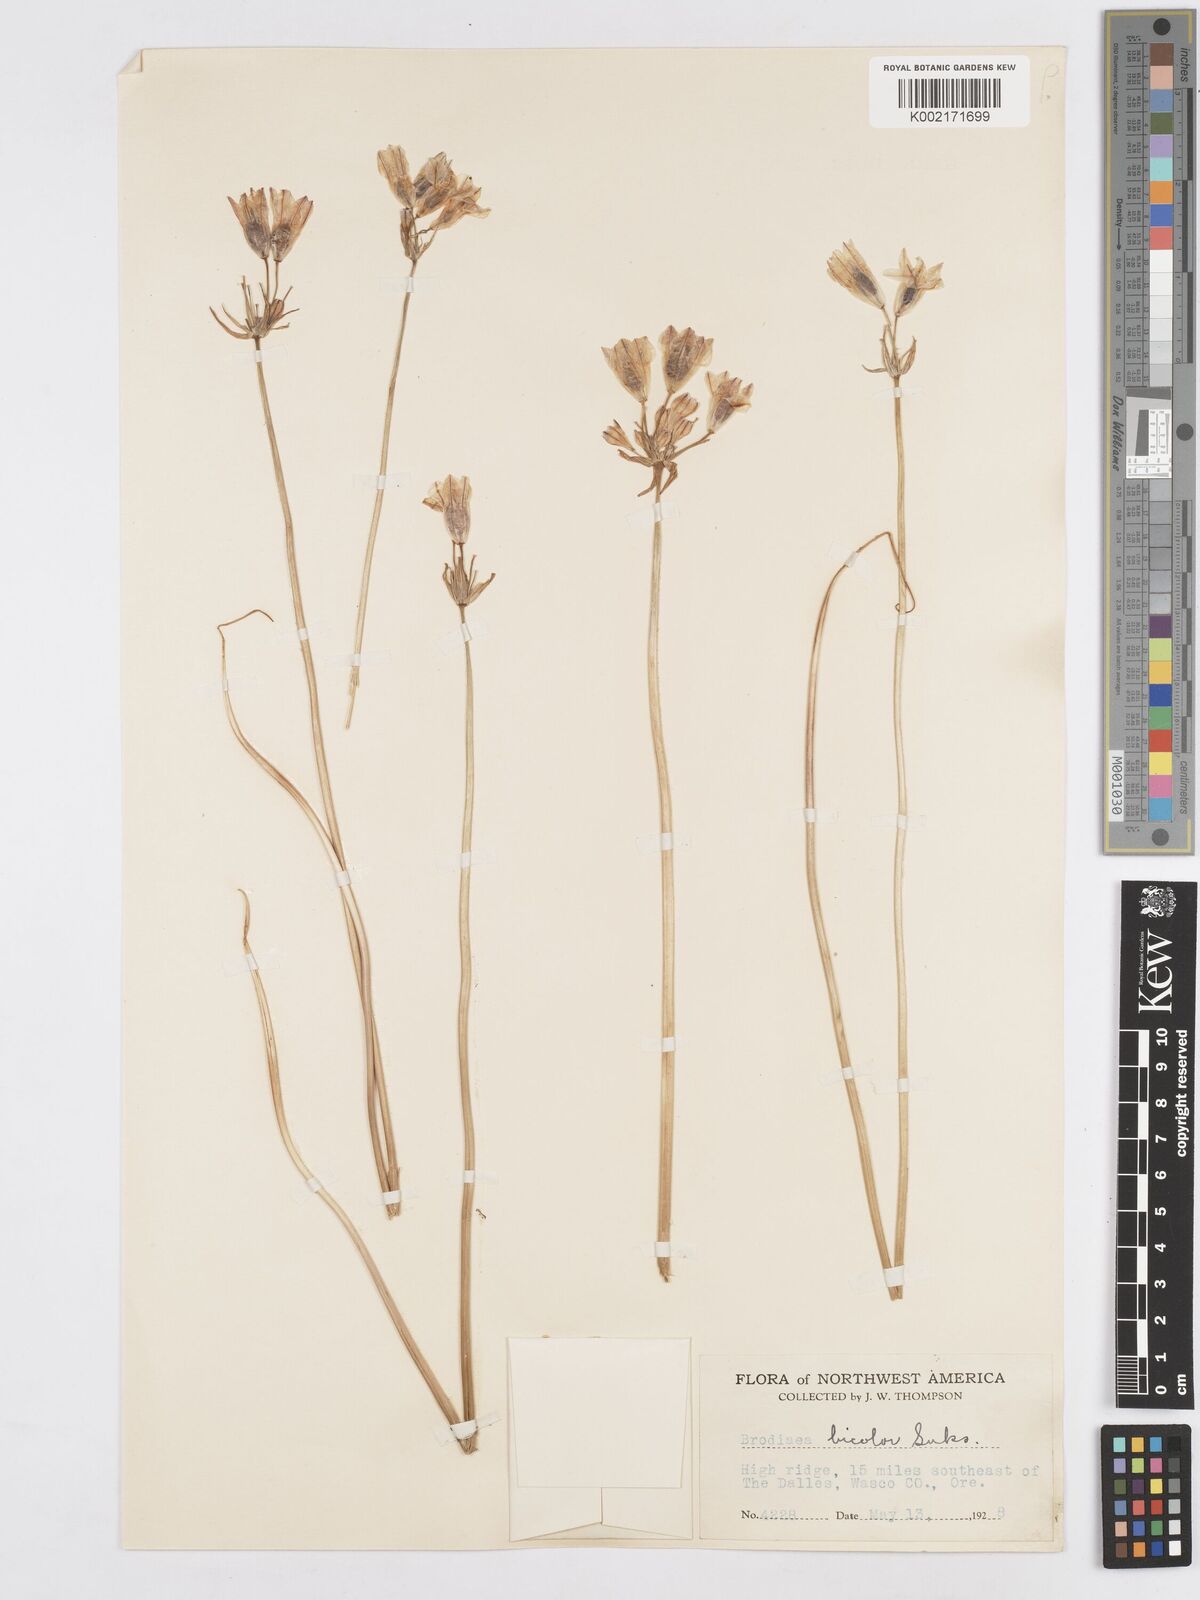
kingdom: Plantae
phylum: Tracheophyta
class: Liliopsida
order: Asparagales
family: Asparagaceae
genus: Triteleia
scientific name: Triteleia grandiflora
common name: Wild hyacinth
